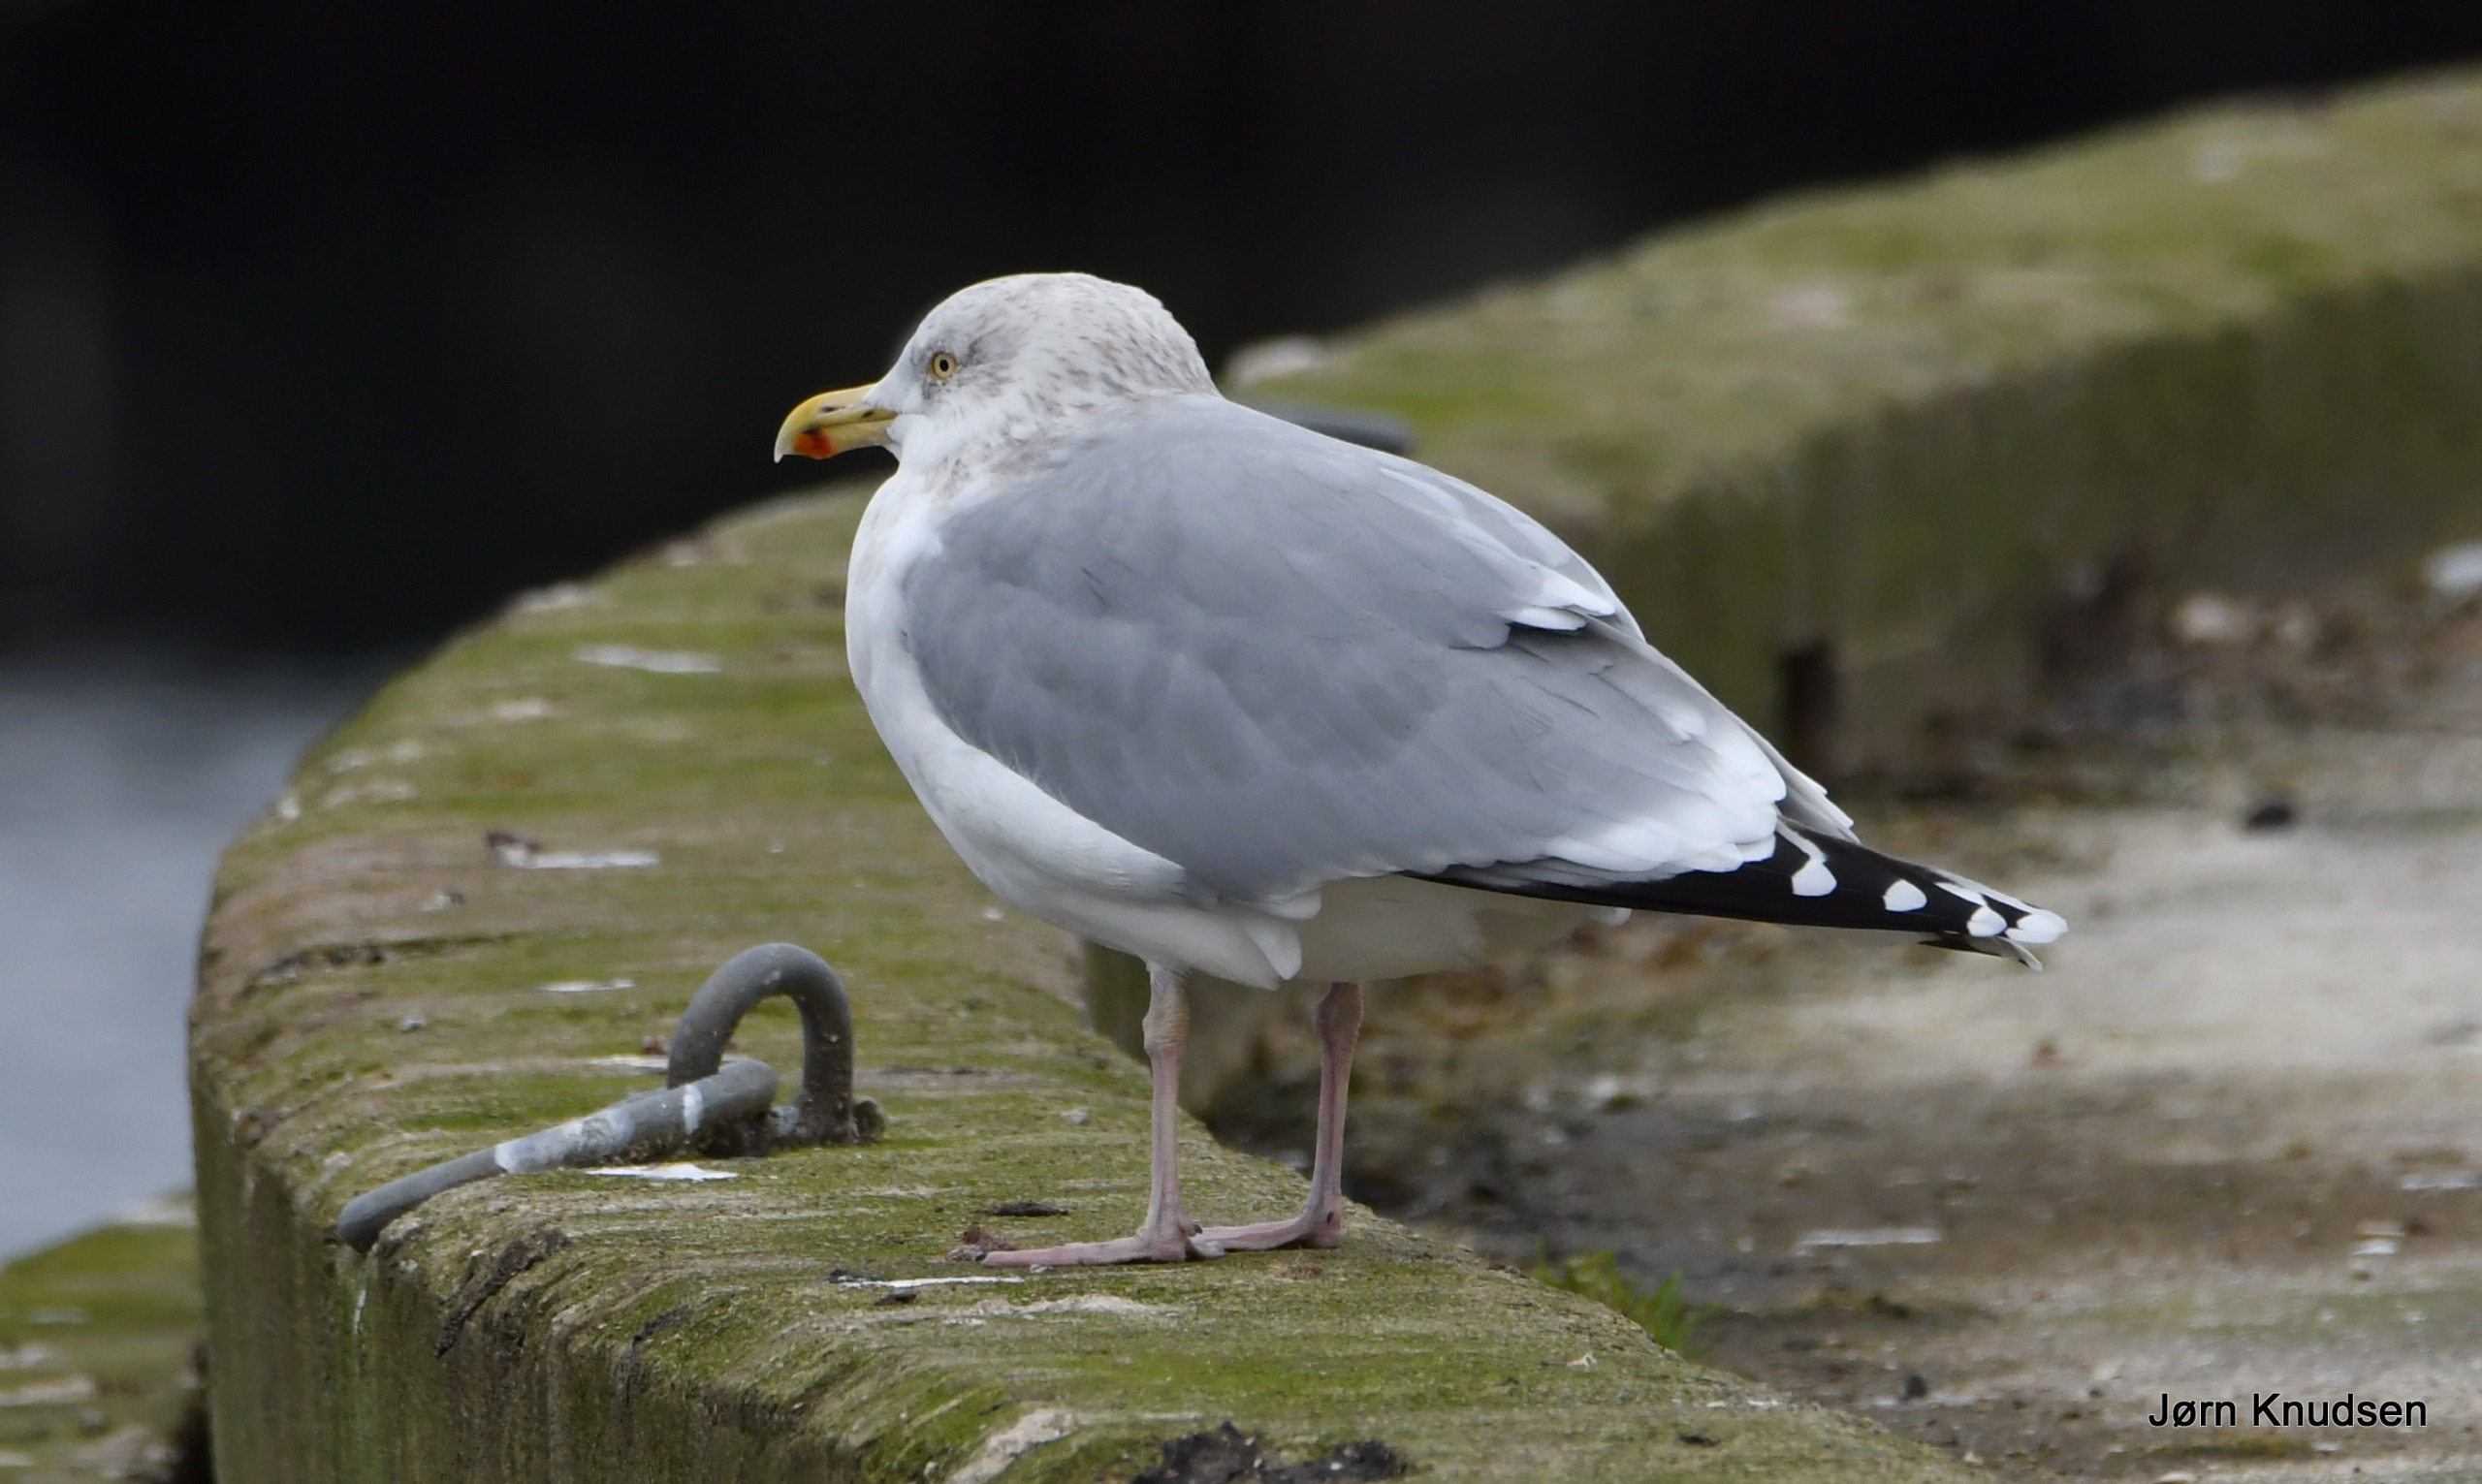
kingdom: Animalia
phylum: Chordata
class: Aves
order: Charadriiformes
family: Laridae
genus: Larus
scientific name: Larus argentatus
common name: Sølvmåge
